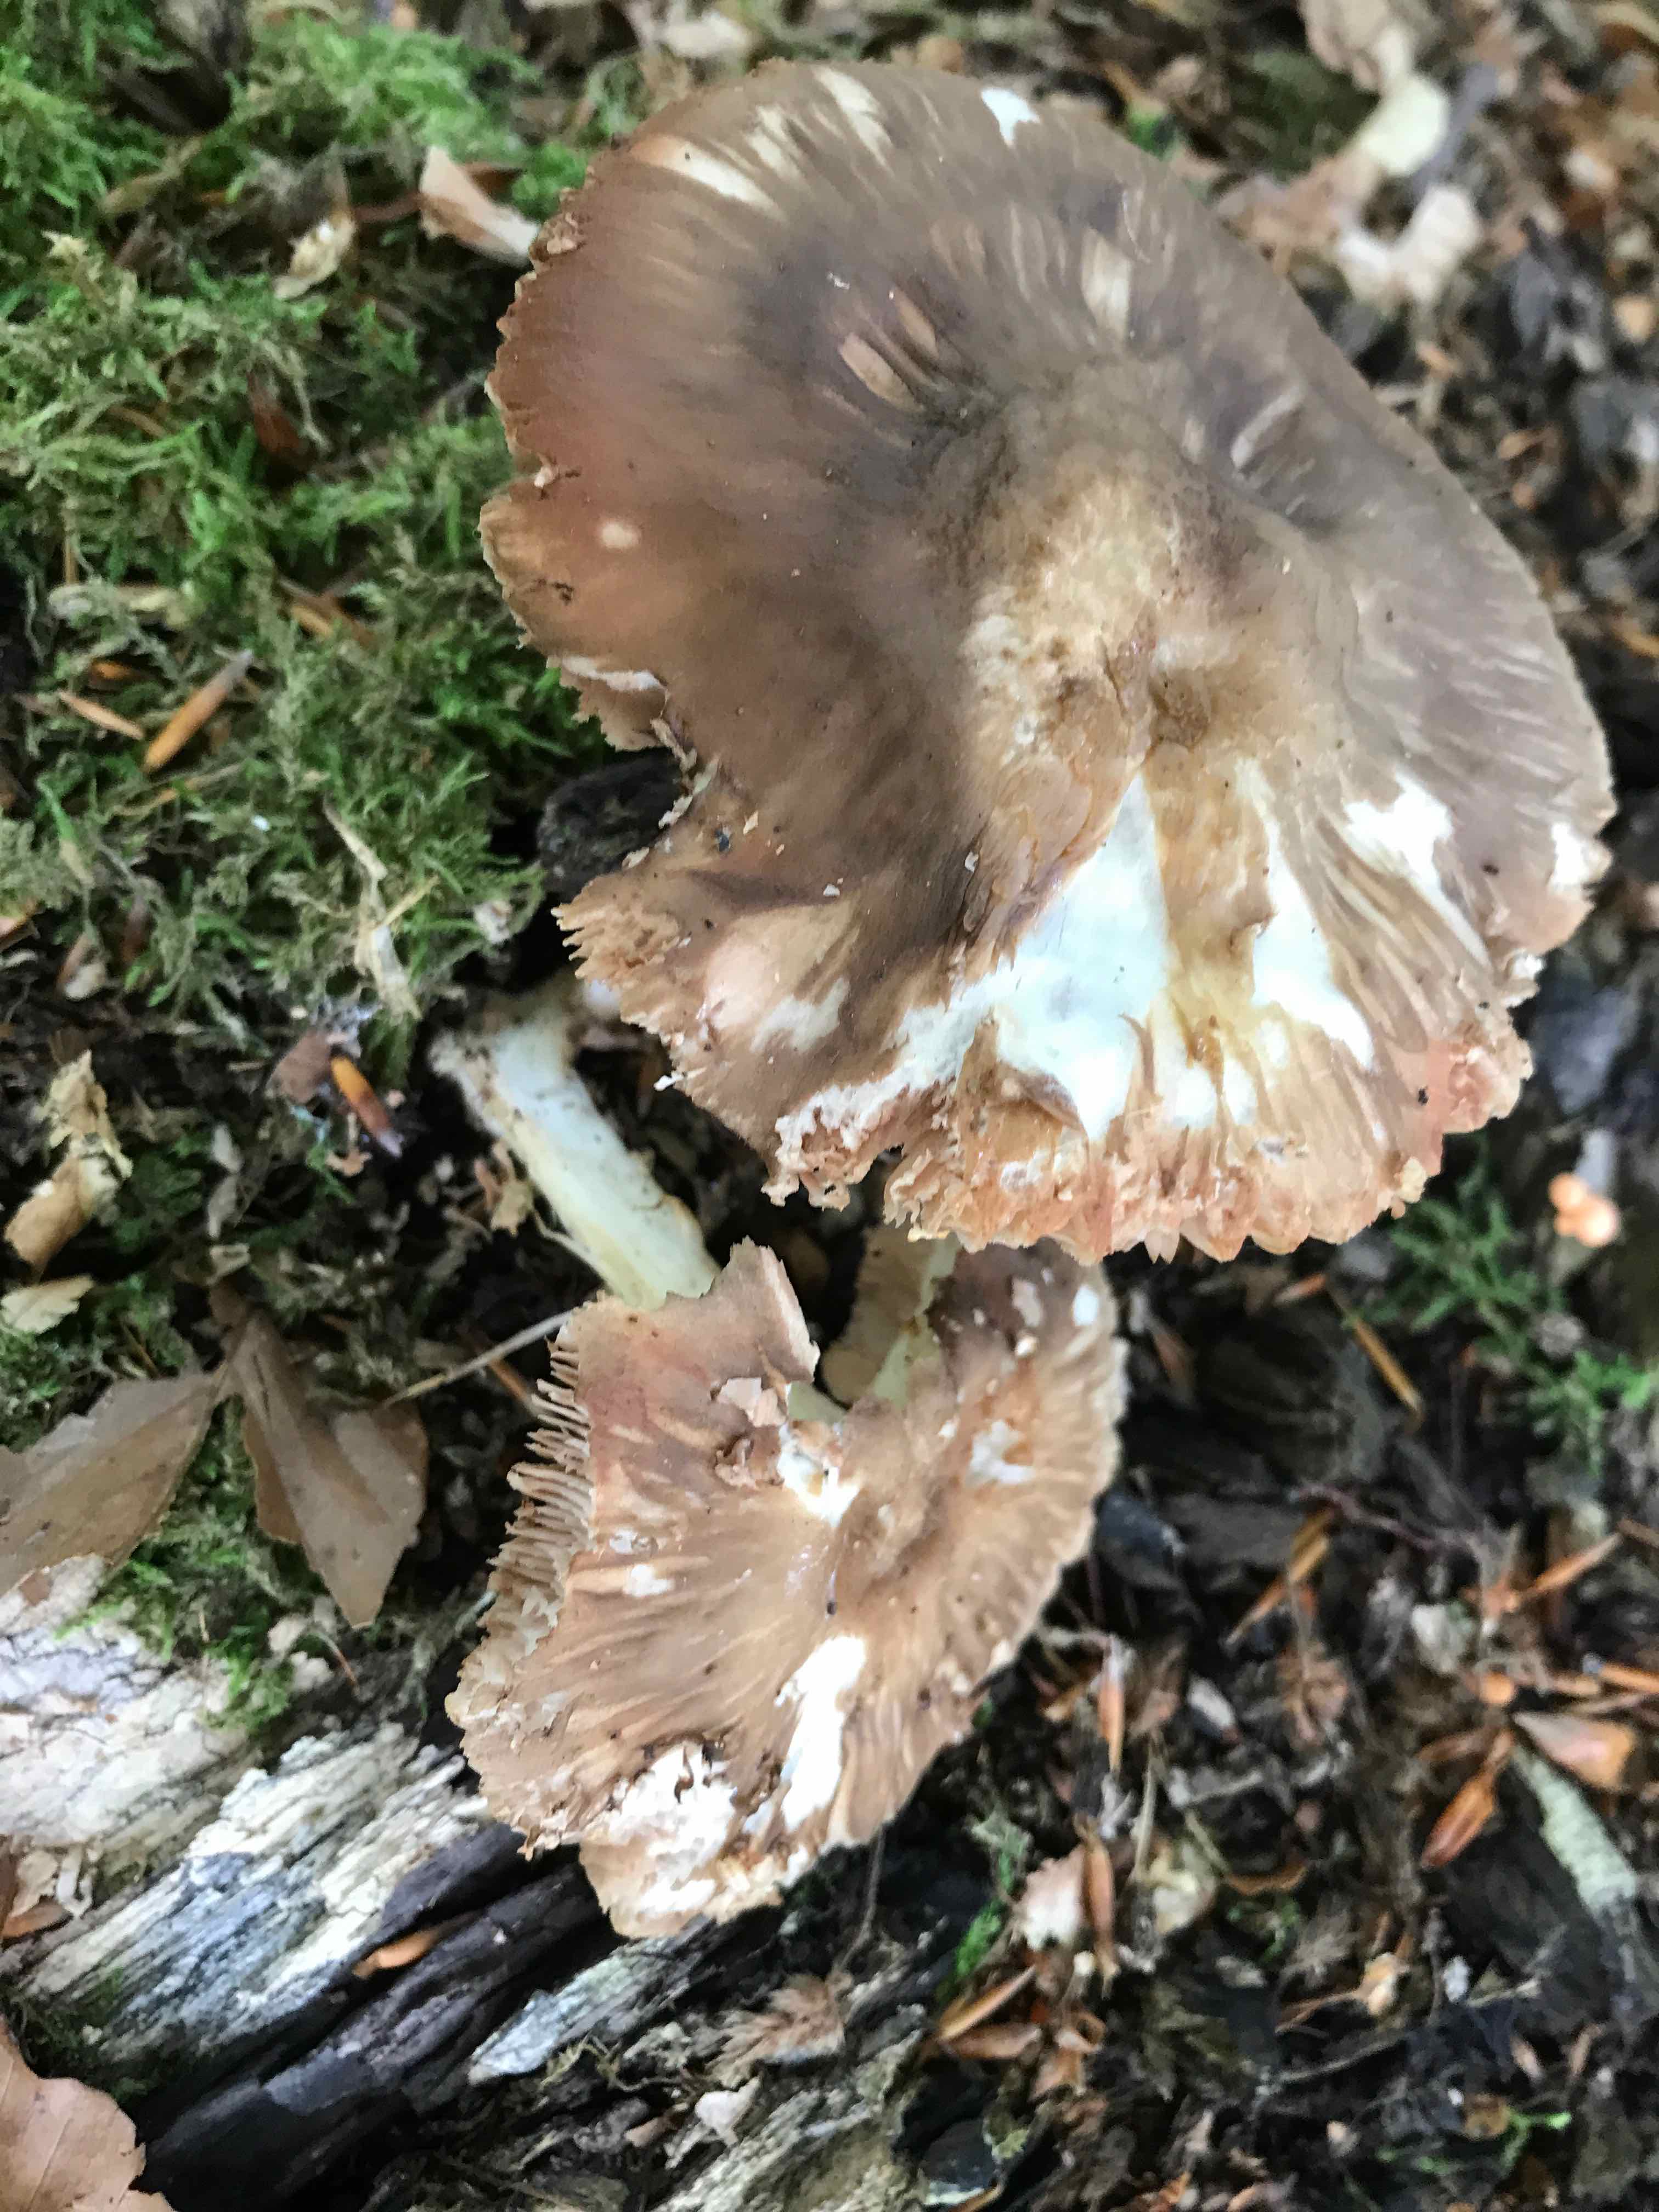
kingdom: Fungi
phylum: Basidiomycota
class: Agaricomycetes
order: Agaricales
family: Pluteaceae
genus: Pluteus
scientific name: Pluteus cervinus
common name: sodfarvet skærmhat
